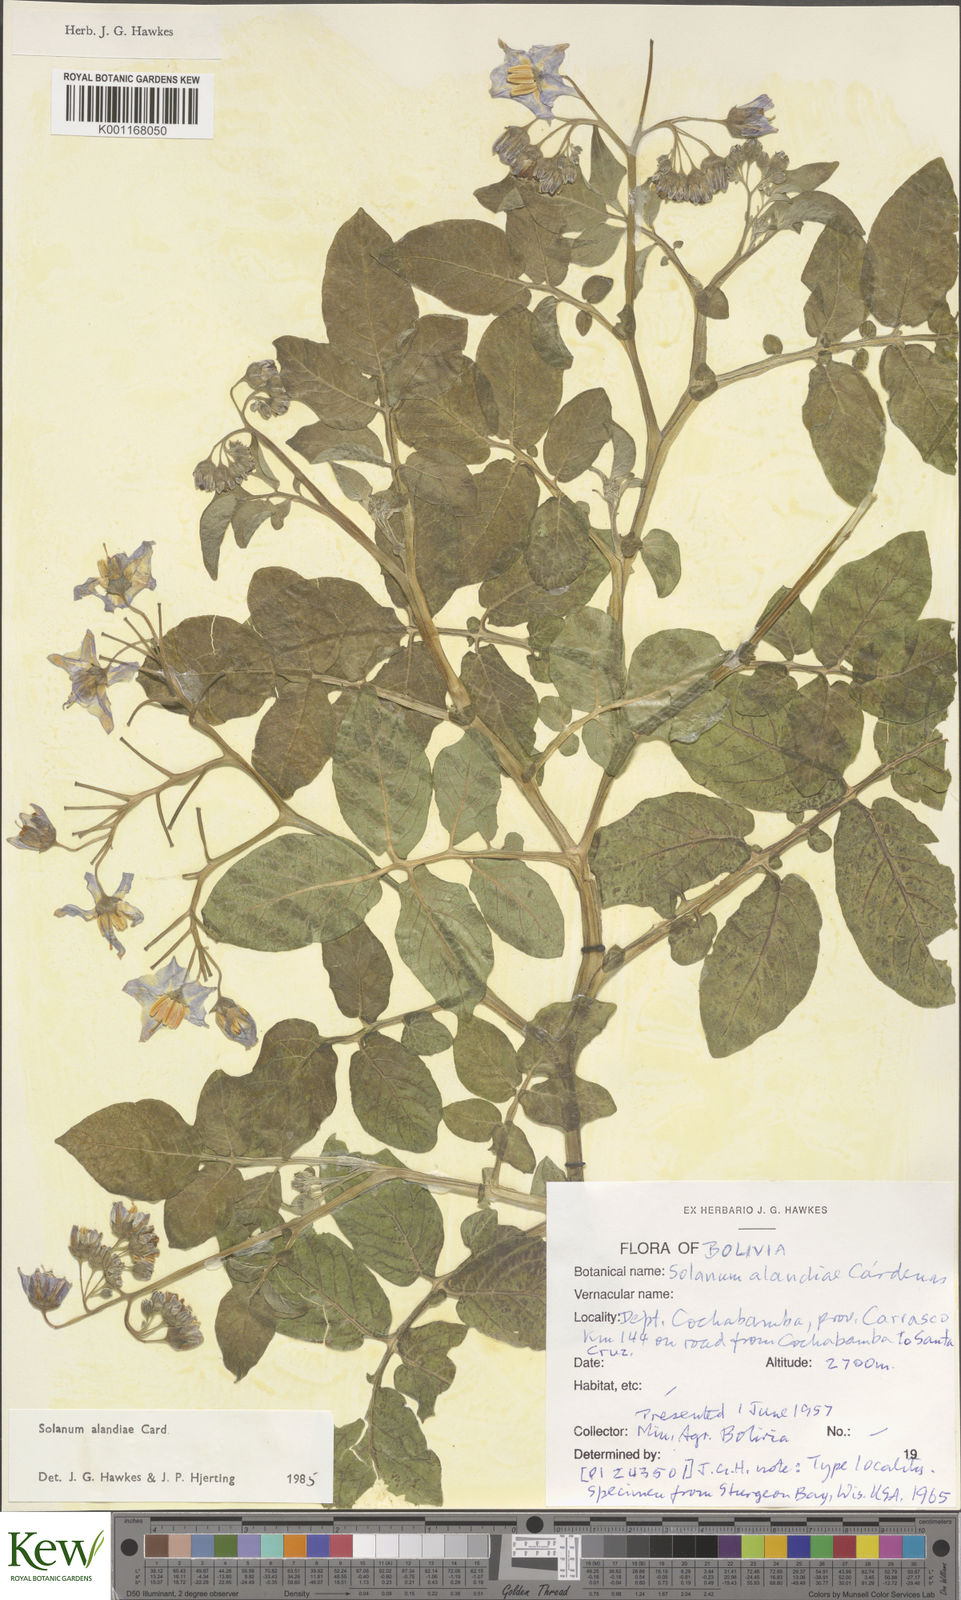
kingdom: Plantae
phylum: Tracheophyta
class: Magnoliopsida
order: Solanales
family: Solanaceae
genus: Solanum
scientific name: Solanum
